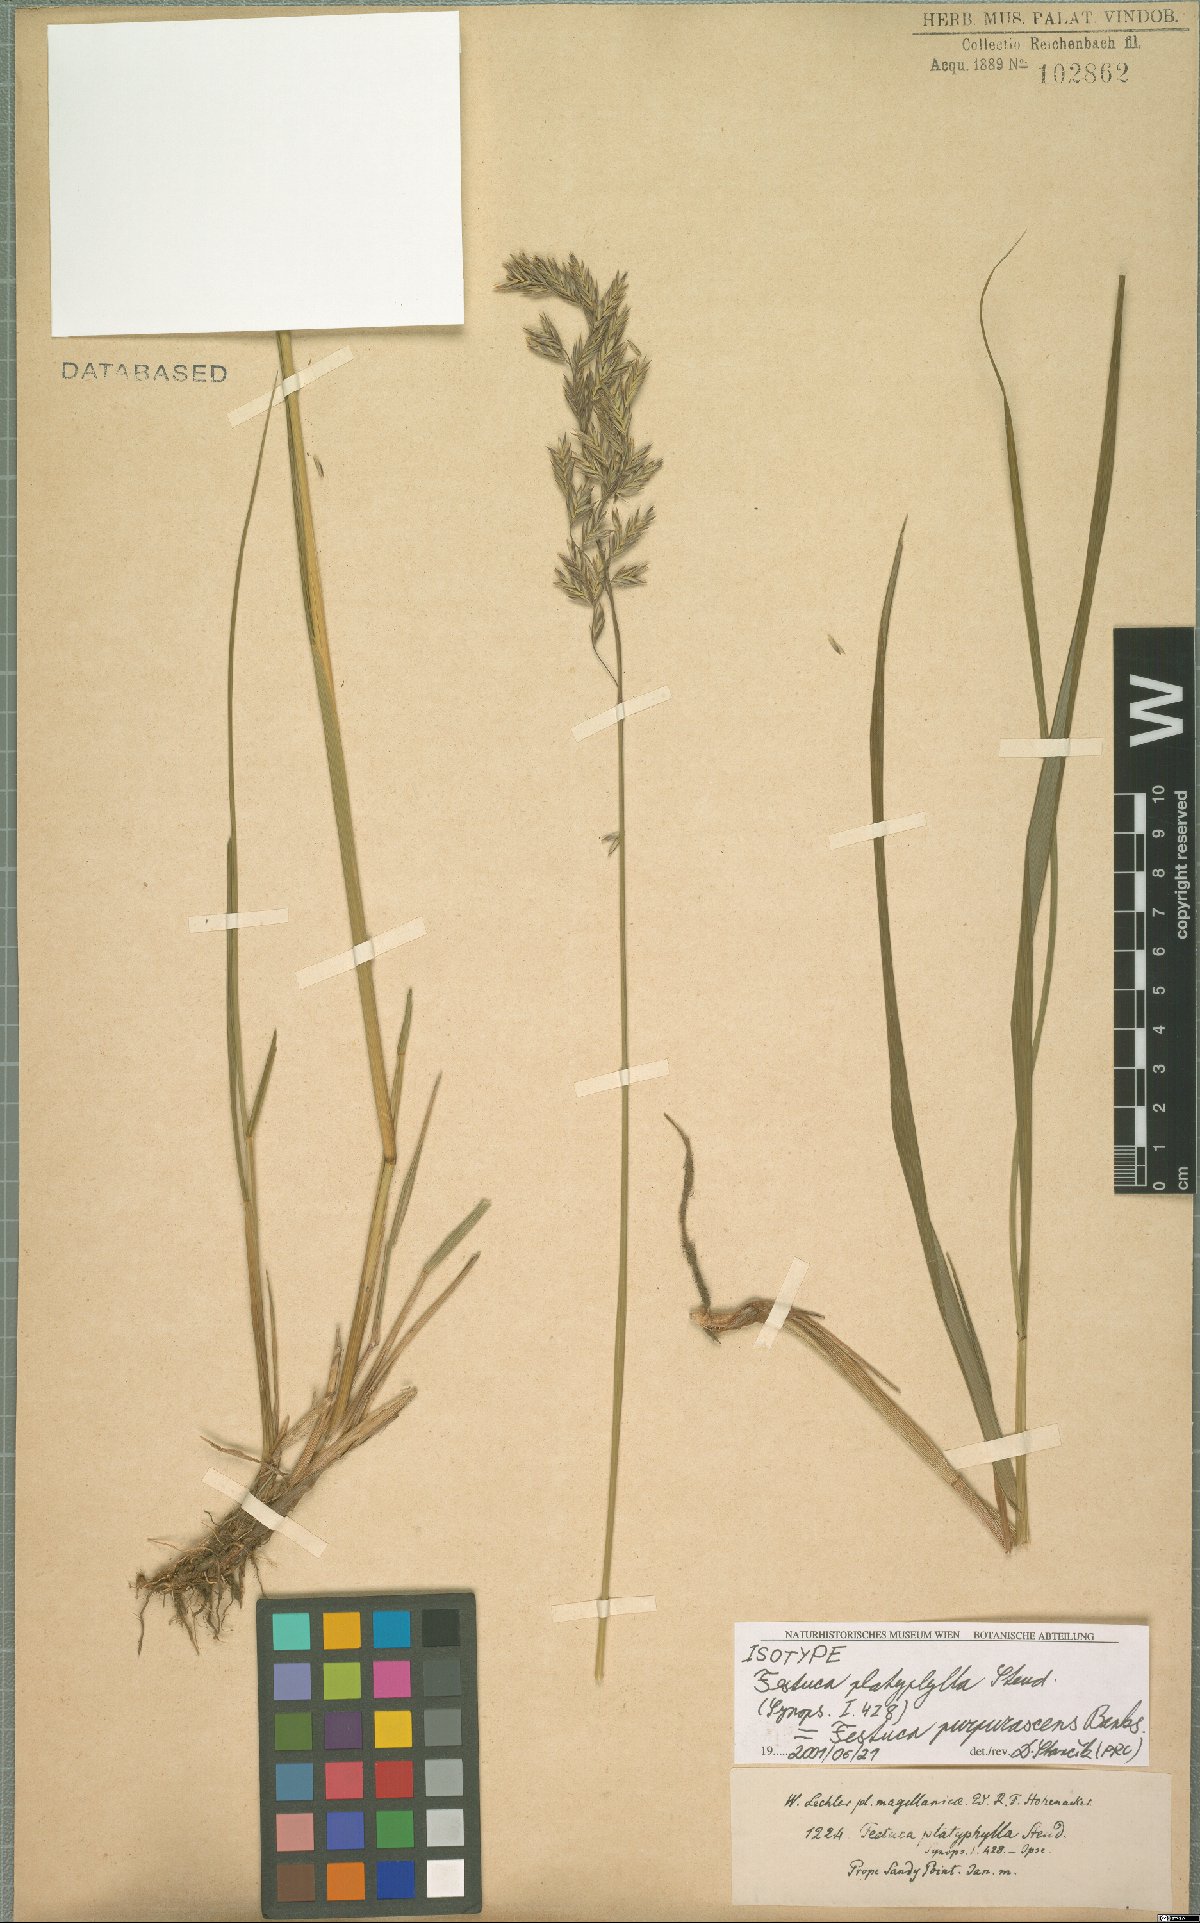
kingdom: Plantae
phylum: Tracheophyta
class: Liliopsida
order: Poales
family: Poaceae
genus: Festuca
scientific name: Festuca purpurascens
